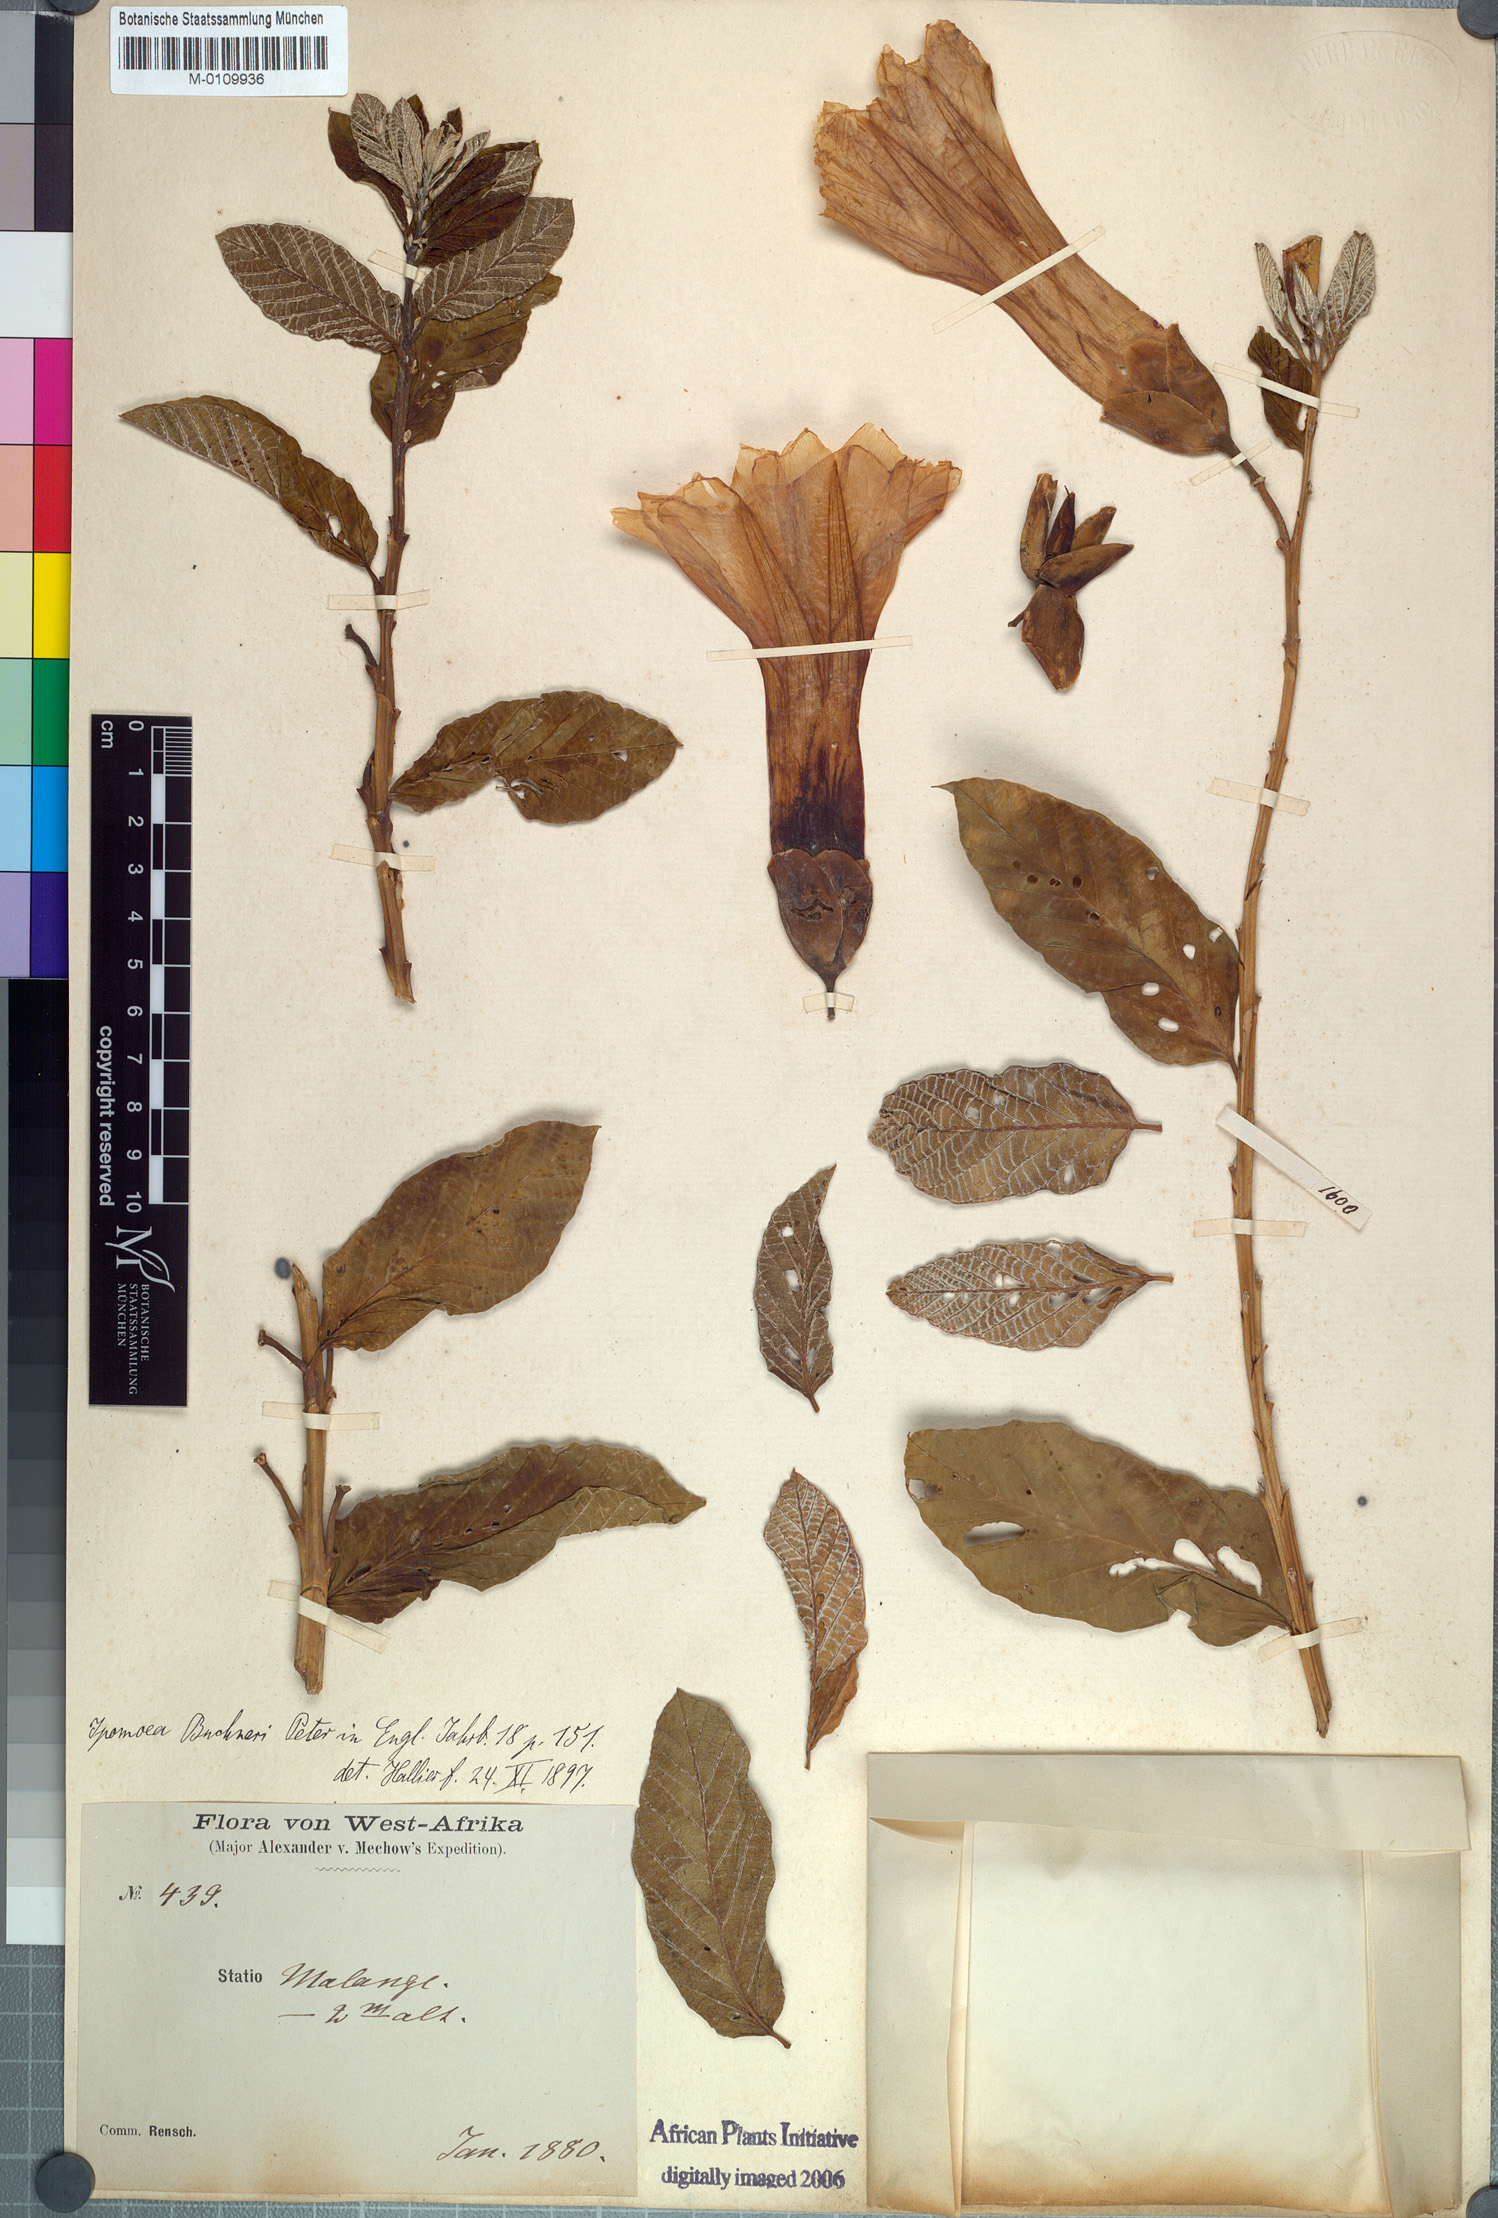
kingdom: Plantae
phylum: Tracheophyta
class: Magnoliopsida
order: Solanales
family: Convolvulaceae
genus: Ipomoea
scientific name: Ipomoea prismatosyphon
